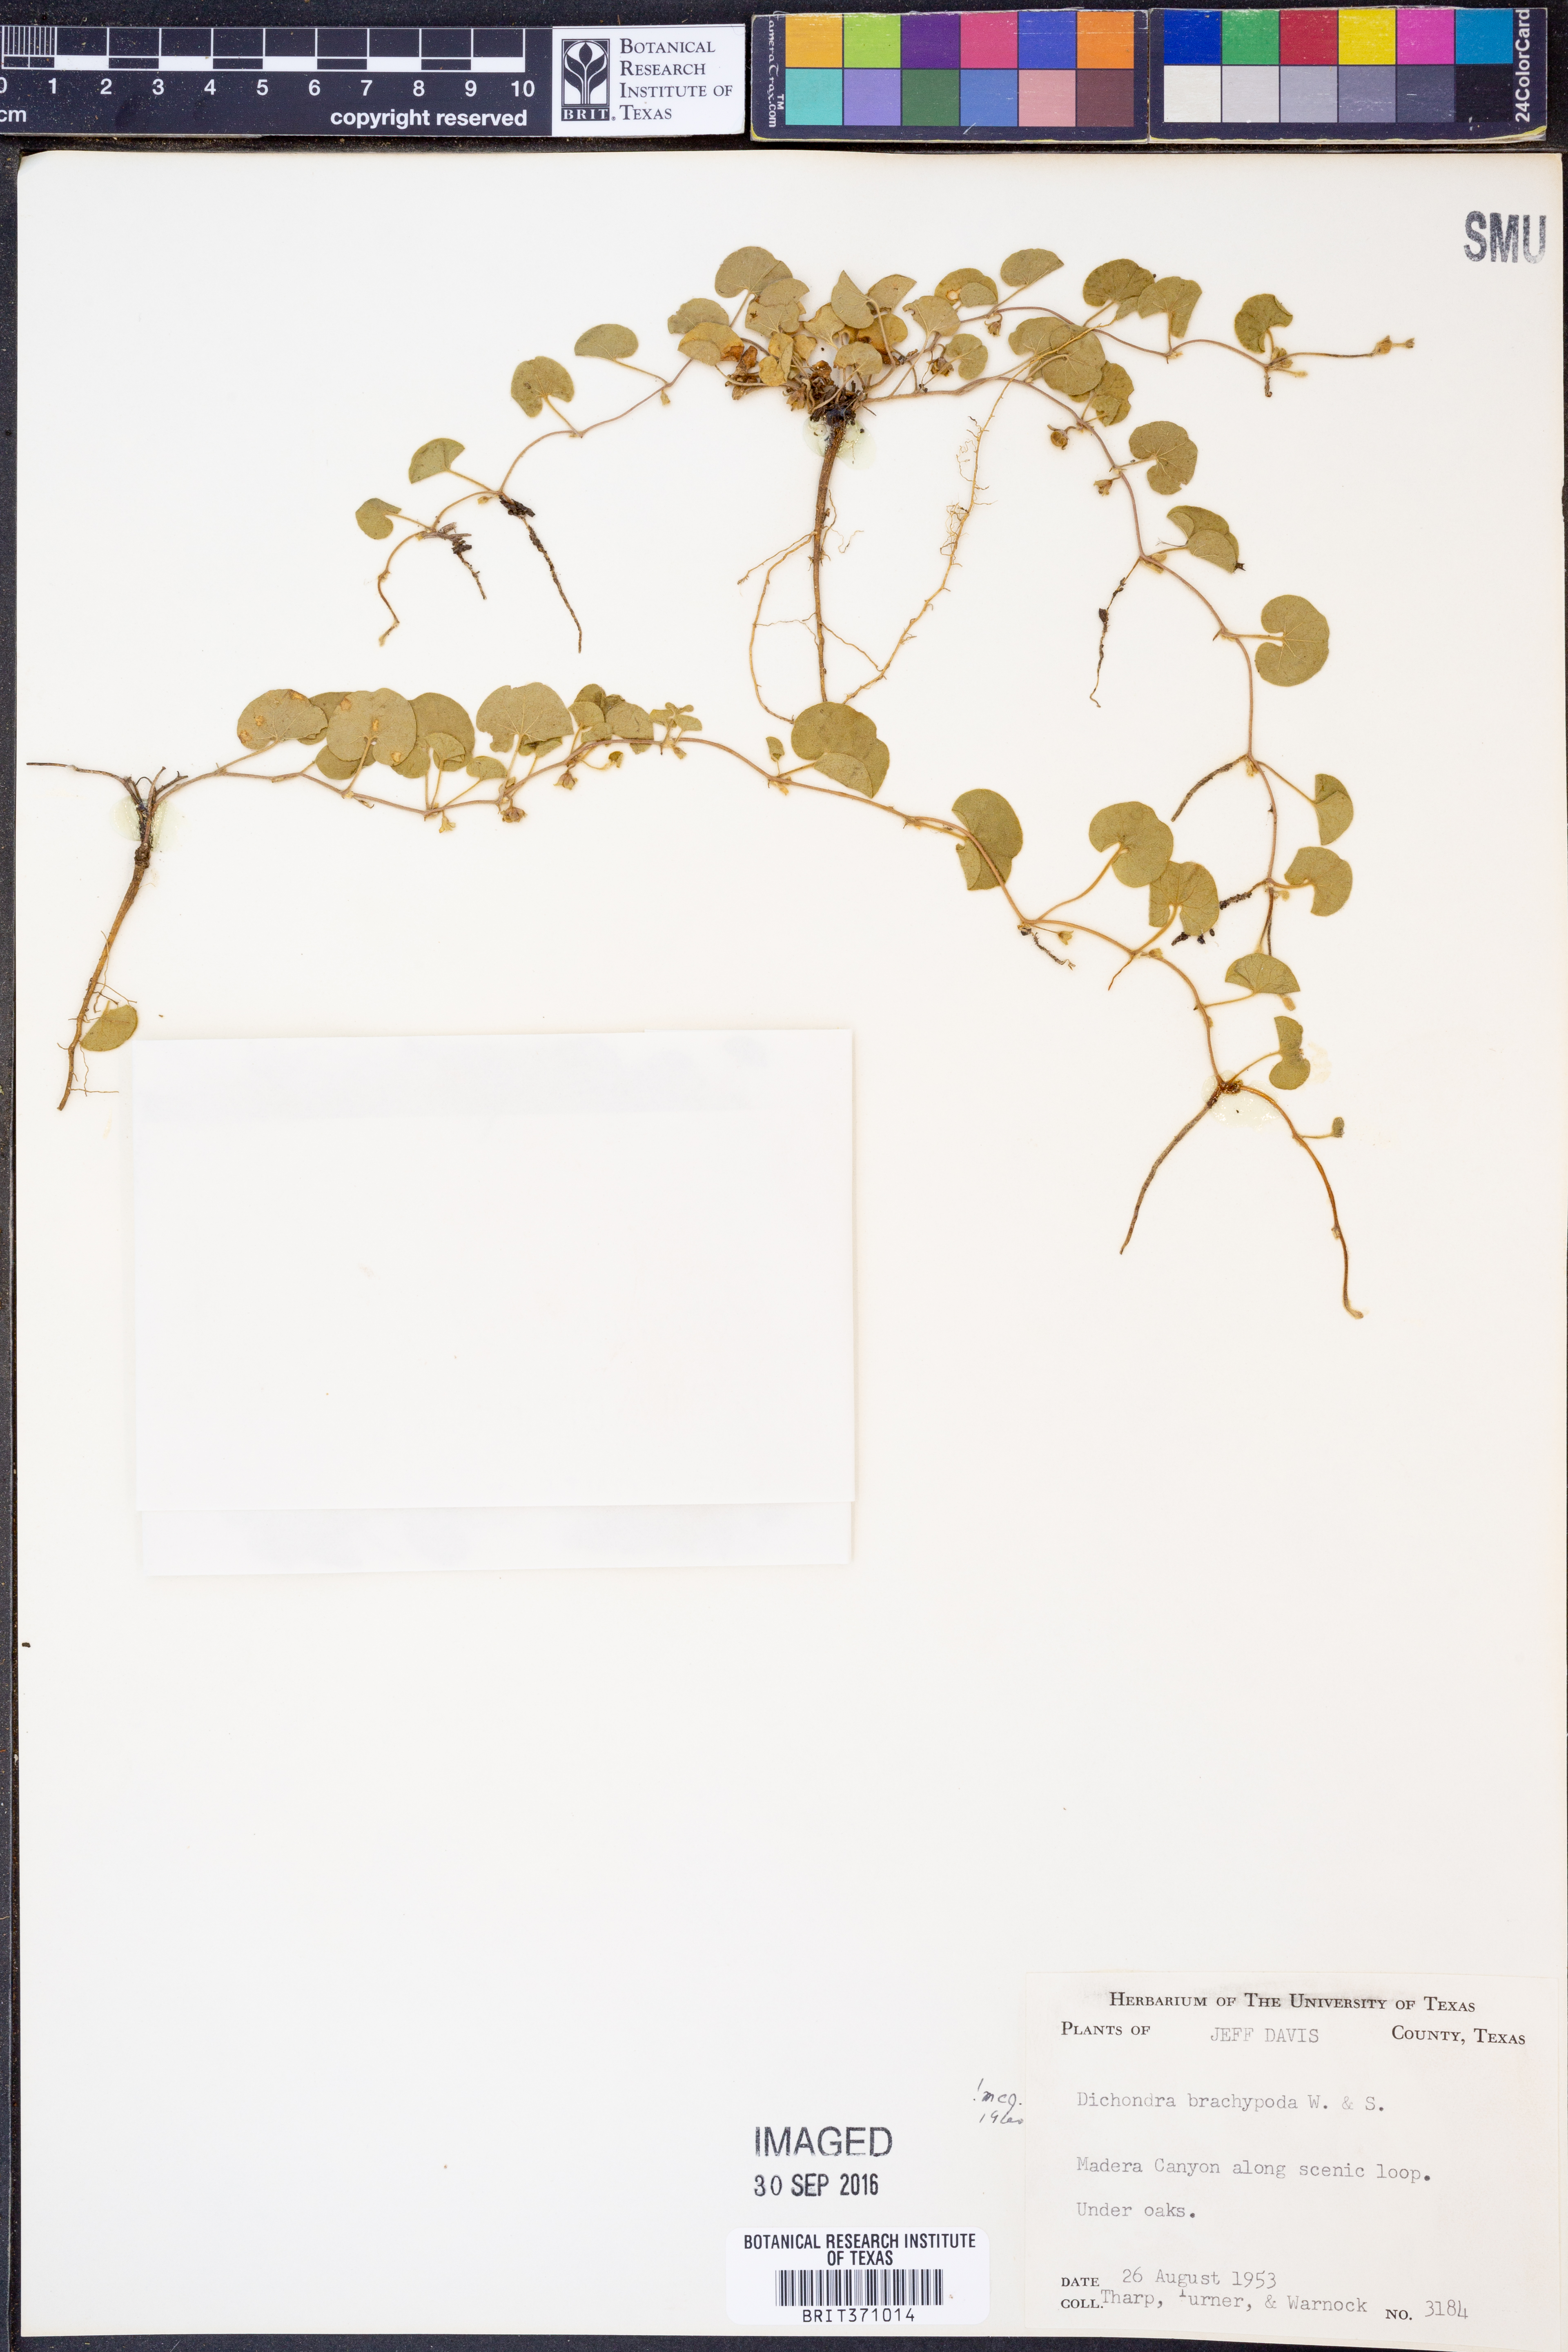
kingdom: Plantae
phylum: Tracheophyta
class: Magnoliopsida
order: Solanales
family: Convolvulaceae
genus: Dichondra
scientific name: Dichondra brachypoda
